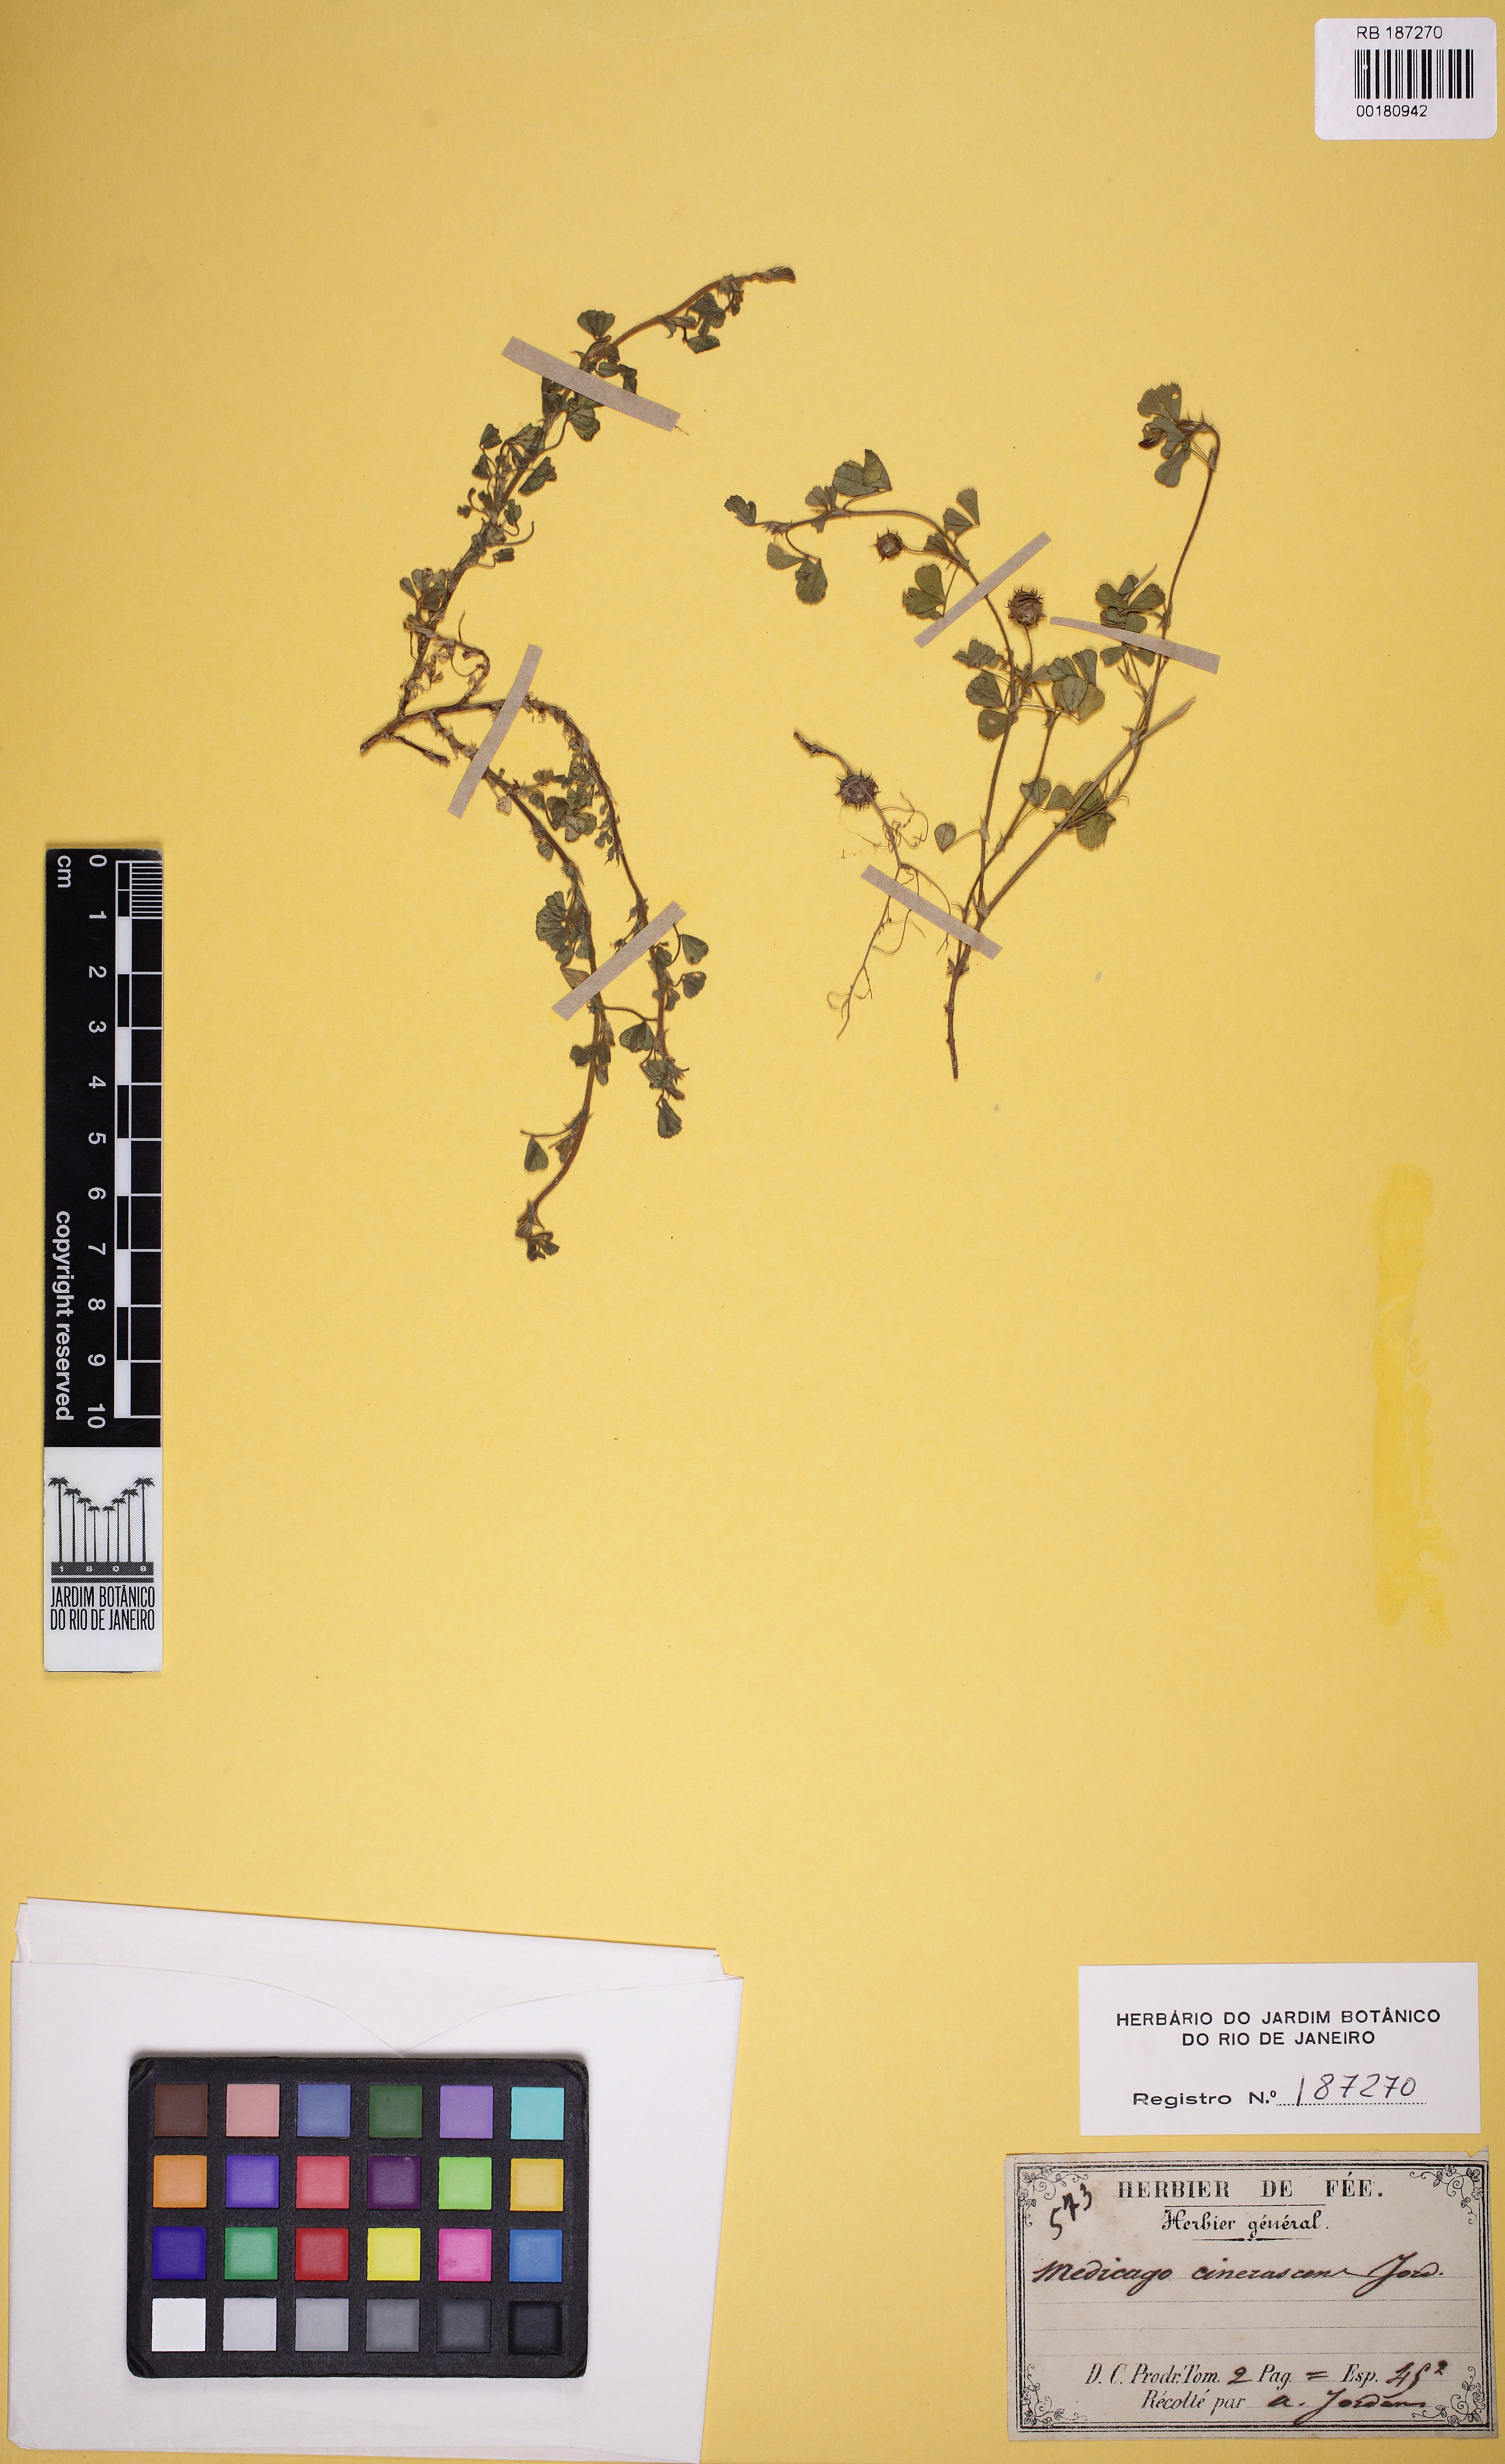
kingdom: Plantae
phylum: Tracheophyta
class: Magnoliopsida
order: Fabales
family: Fabaceae
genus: Medicago
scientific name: Medicago rigidula
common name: Tifton medic
